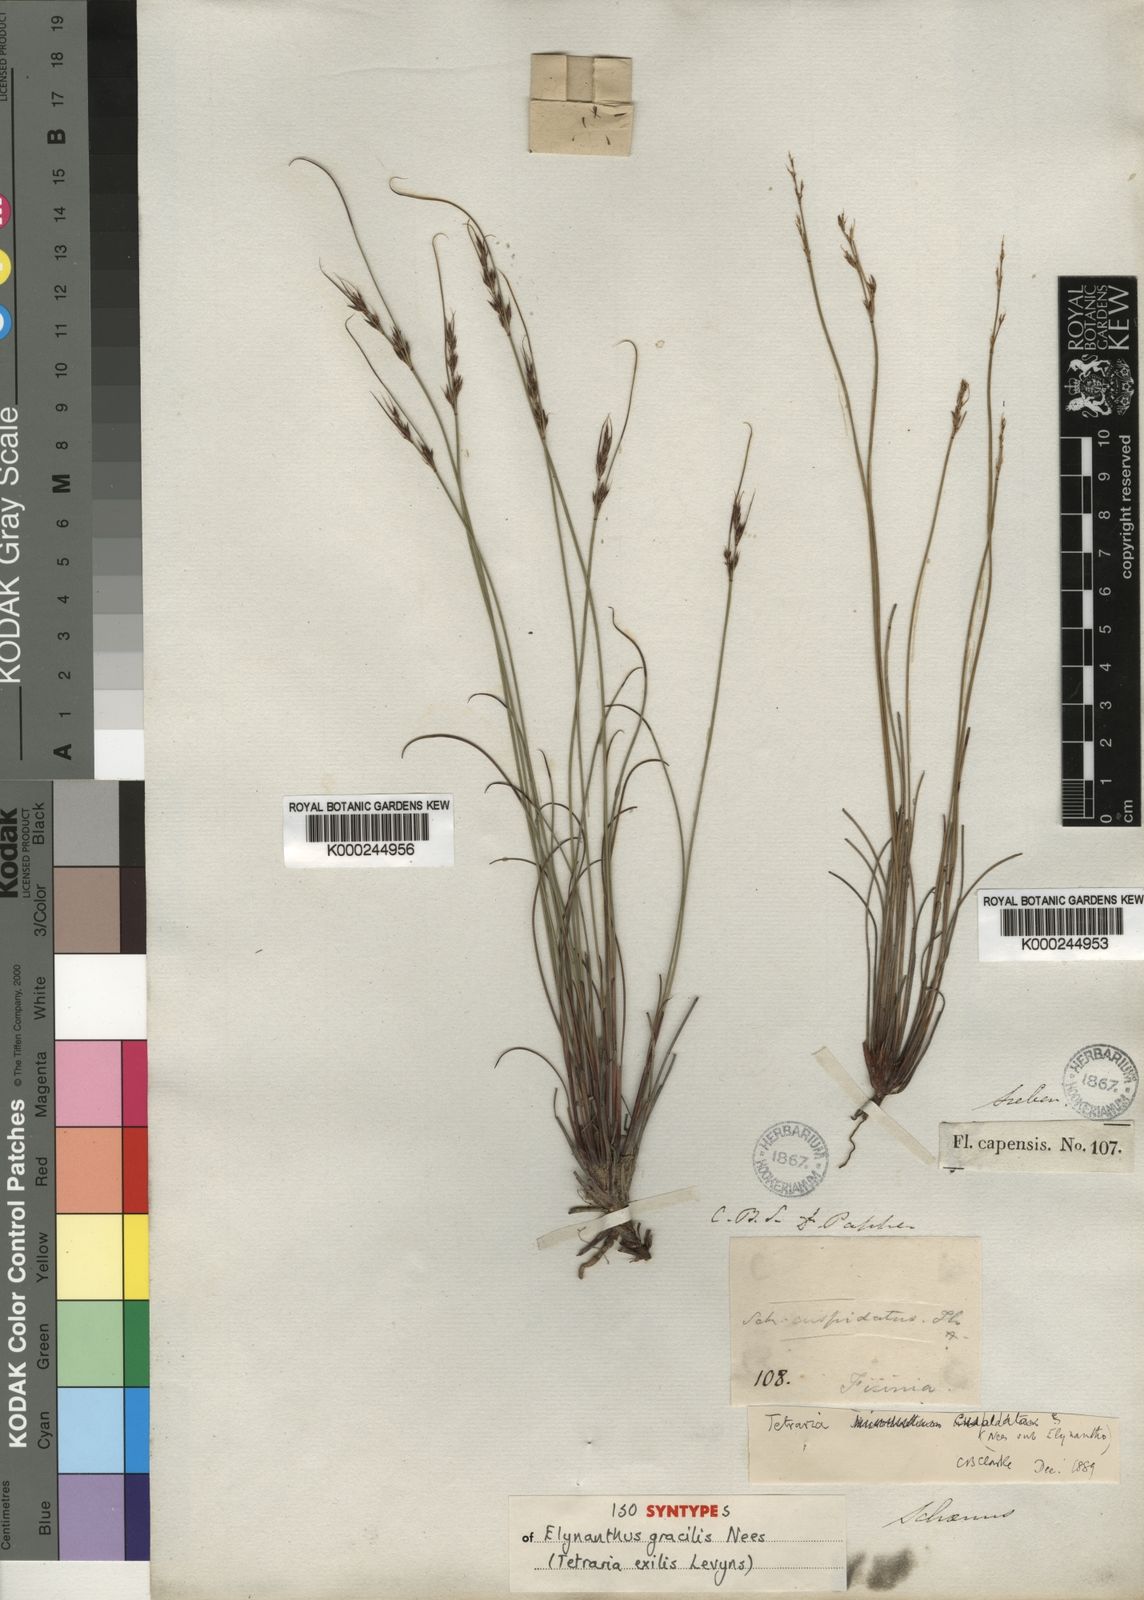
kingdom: Plantae
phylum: Tracheophyta
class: Liliopsida
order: Poales
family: Cyperaceae
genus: Schoenus
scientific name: Schoenus cuspidatus
